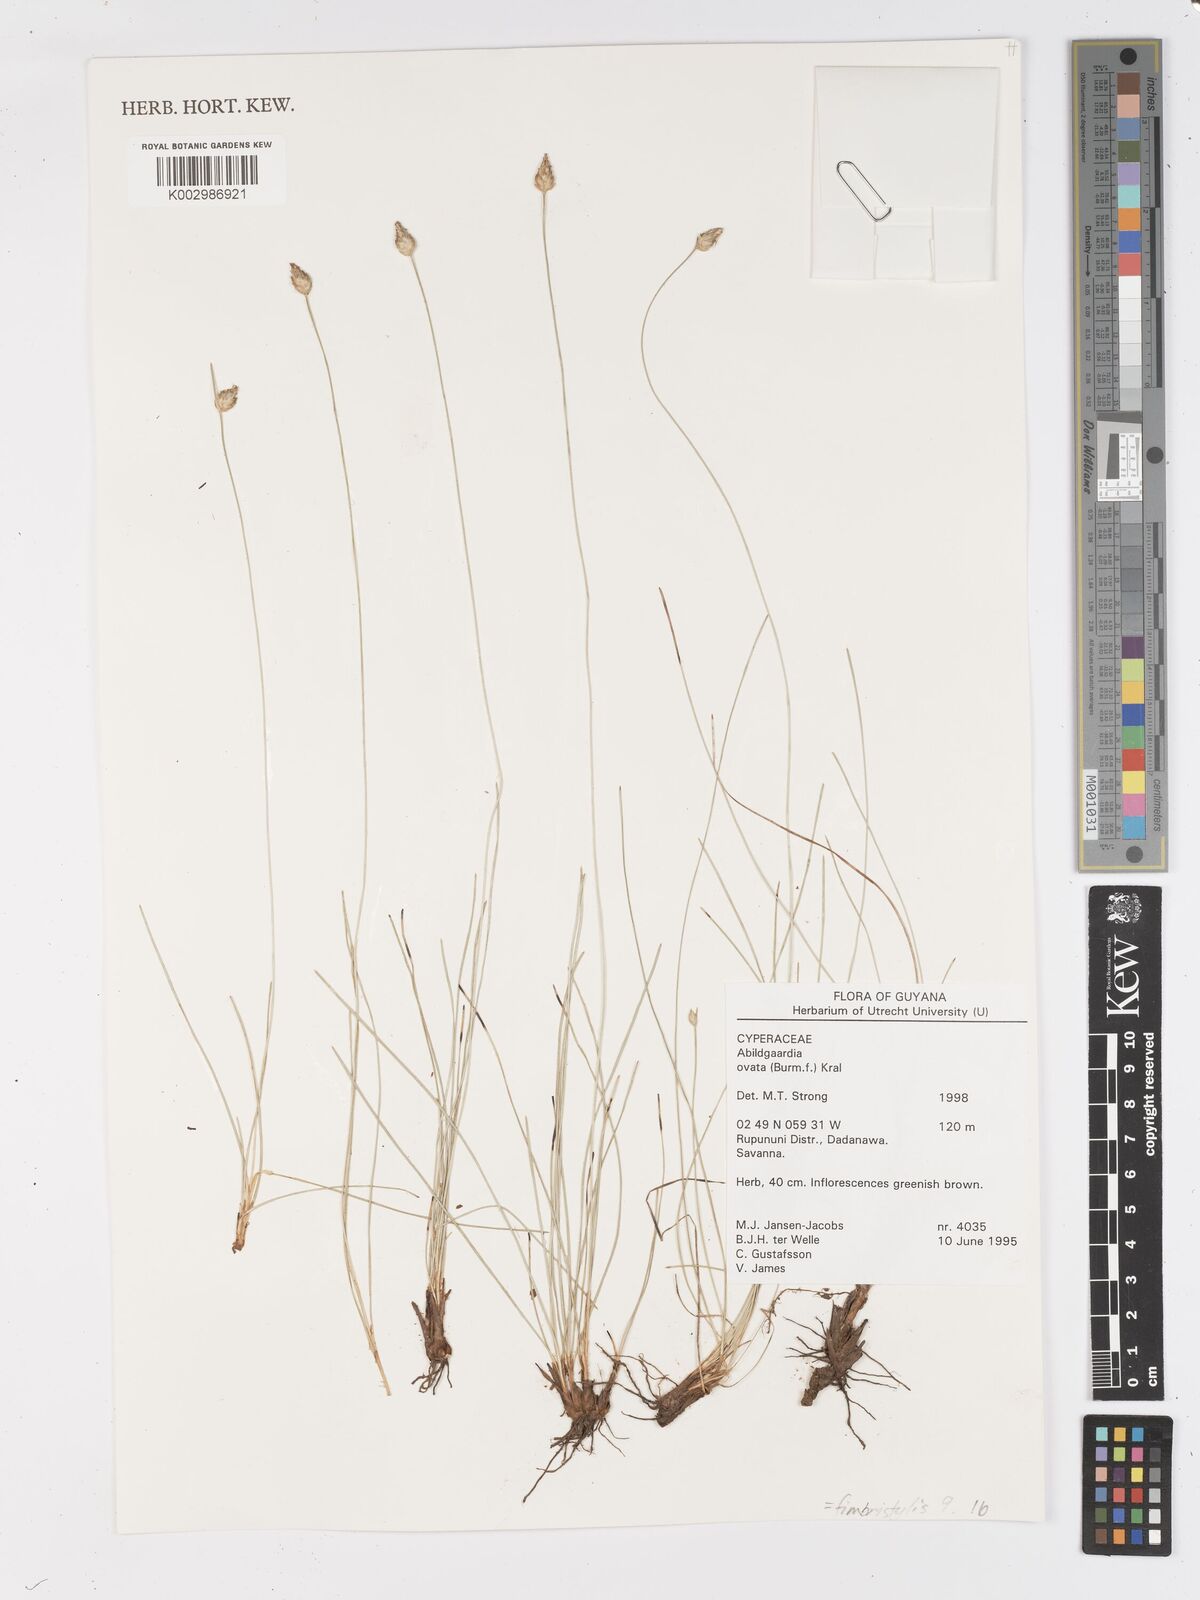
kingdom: Plantae
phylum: Tracheophyta
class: Liliopsida
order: Poales
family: Cyperaceae
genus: Abildgaardia
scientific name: Abildgaardia ovata
